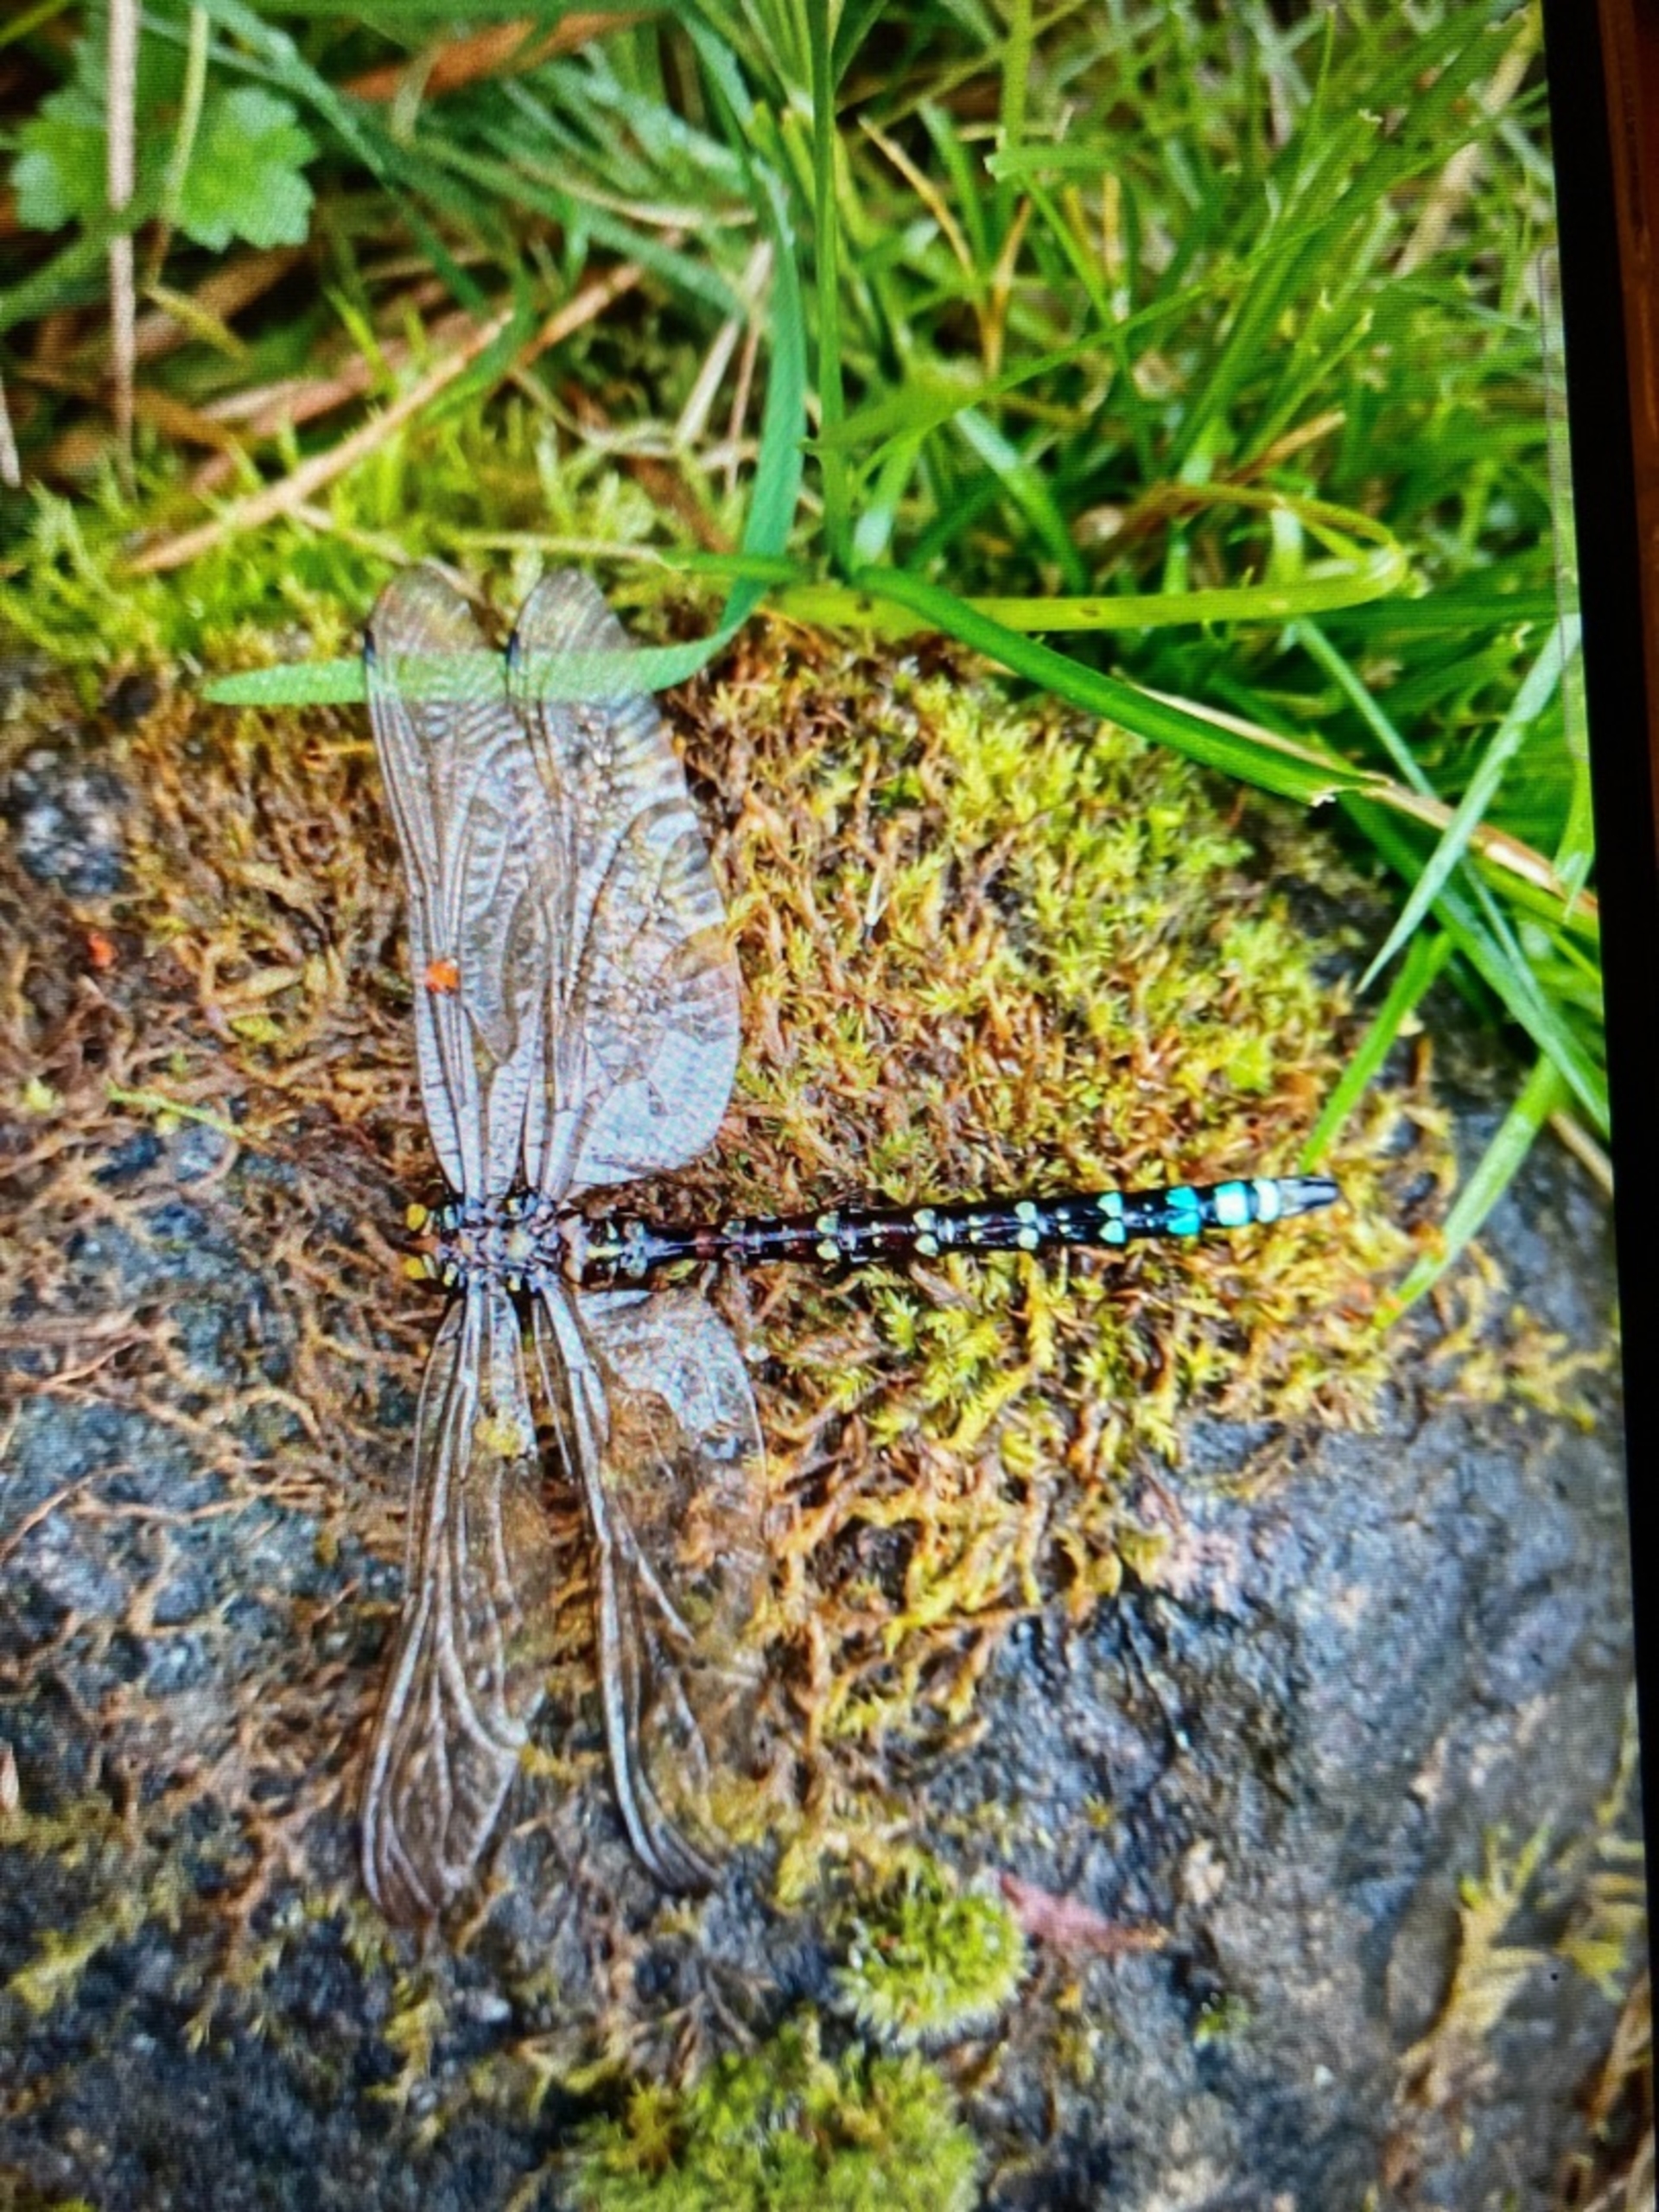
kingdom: Animalia
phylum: Arthropoda
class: Insecta
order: Odonata
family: Aeshnidae
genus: Aeshna
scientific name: Aeshna cyanea
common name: Blå mosaikguldsmed
